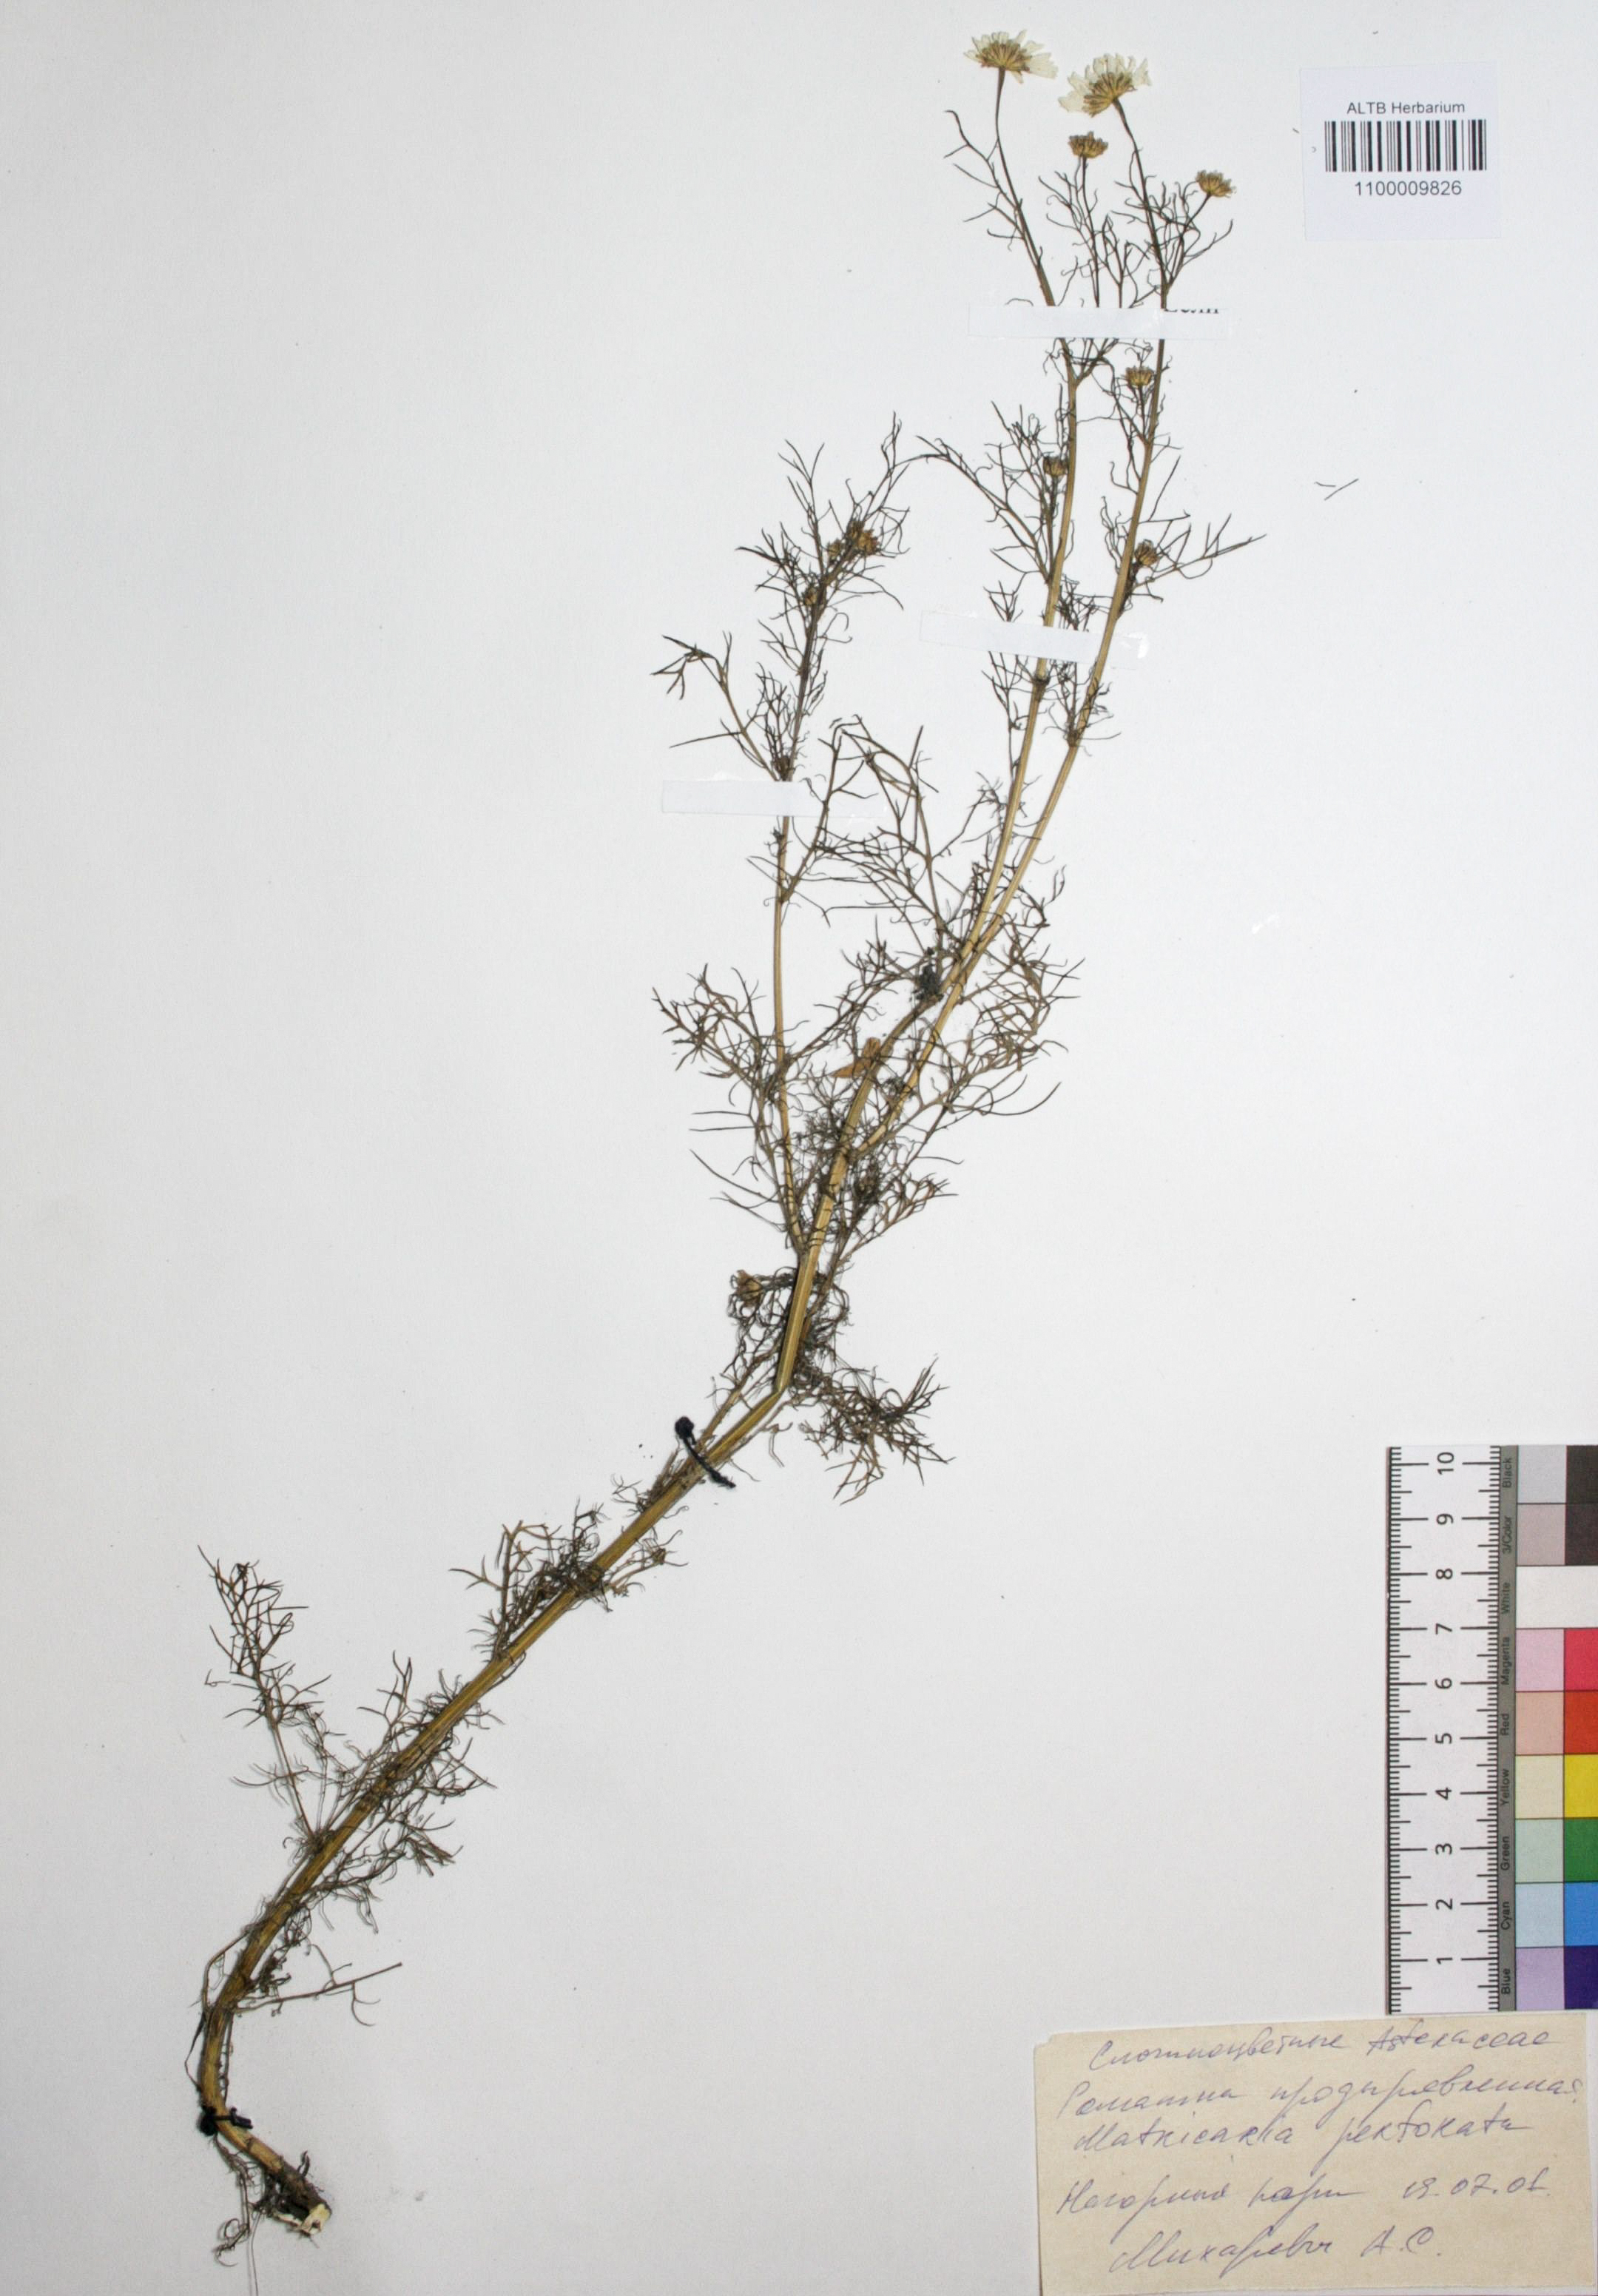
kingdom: Plantae
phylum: Tracheophyta
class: Magnoliopsida
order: Asterales
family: Asteraceae
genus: Tripleurospermum
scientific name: Tripleurospermum inodorum
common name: Scentless mayweed
